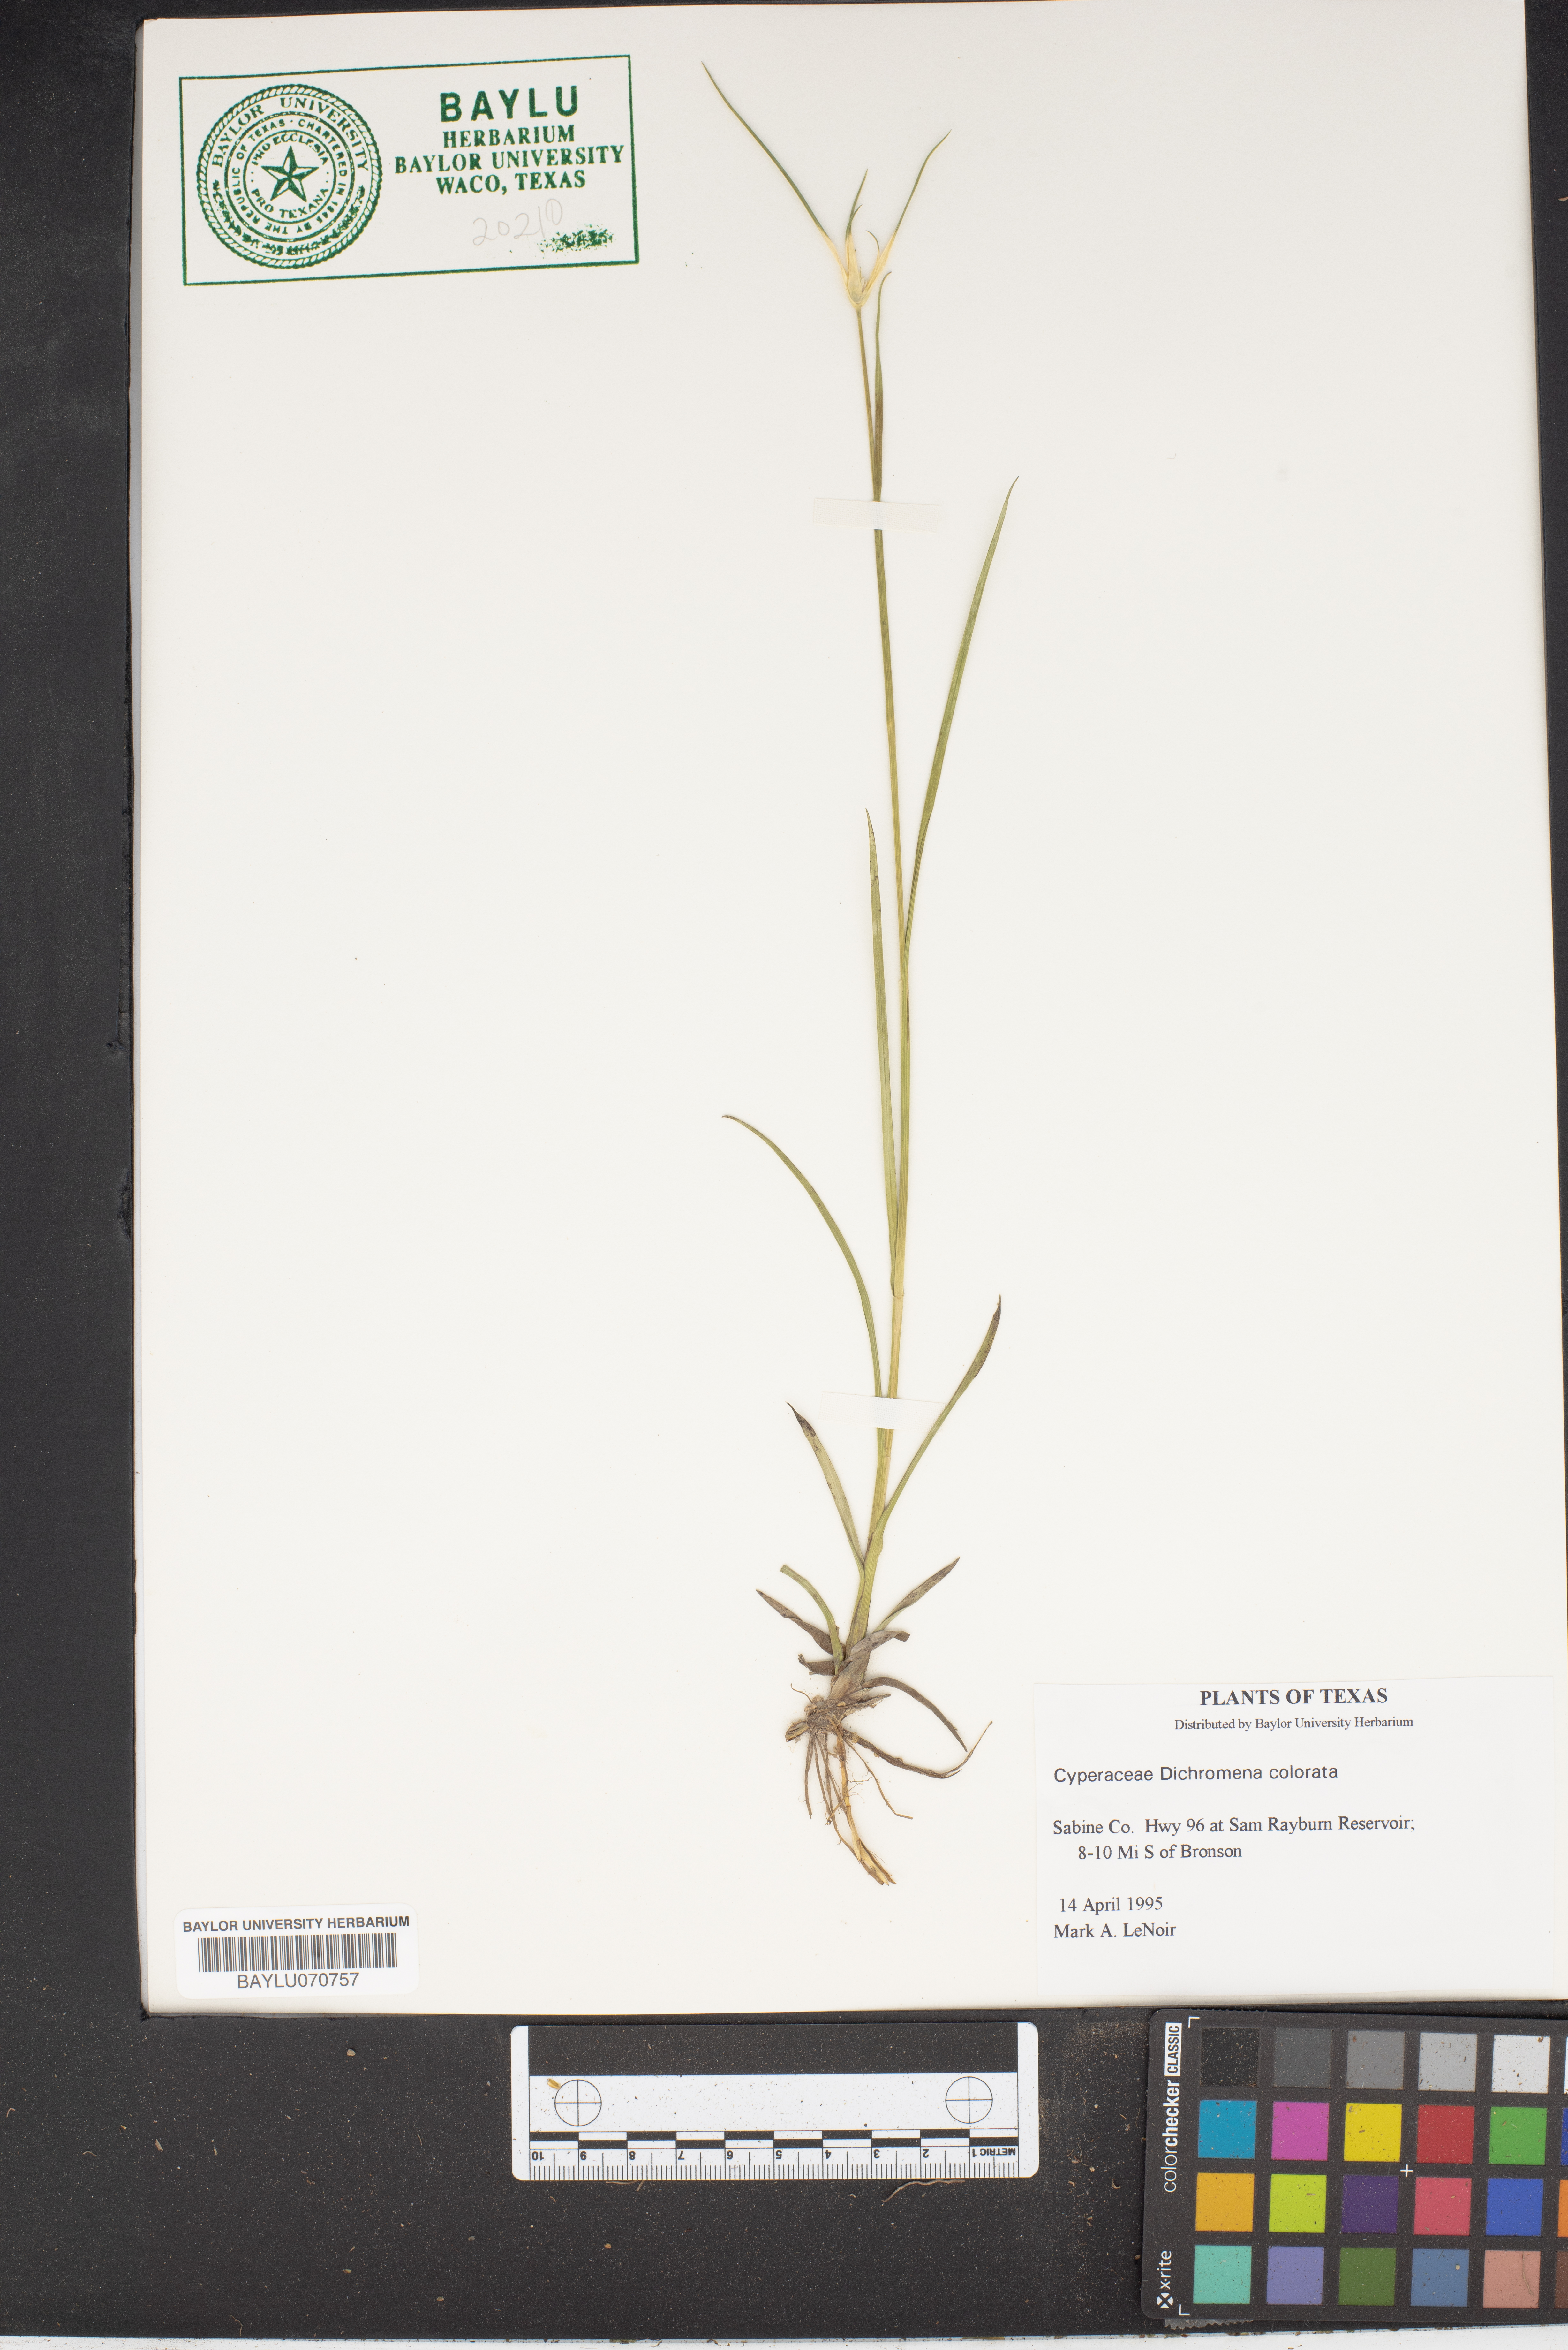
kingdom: Plantae
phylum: Tracheophyta
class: Liliopsida
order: Poales
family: Cyperaceae
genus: Rhynchospora
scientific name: Rhynchospora colorata
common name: Star sedge
